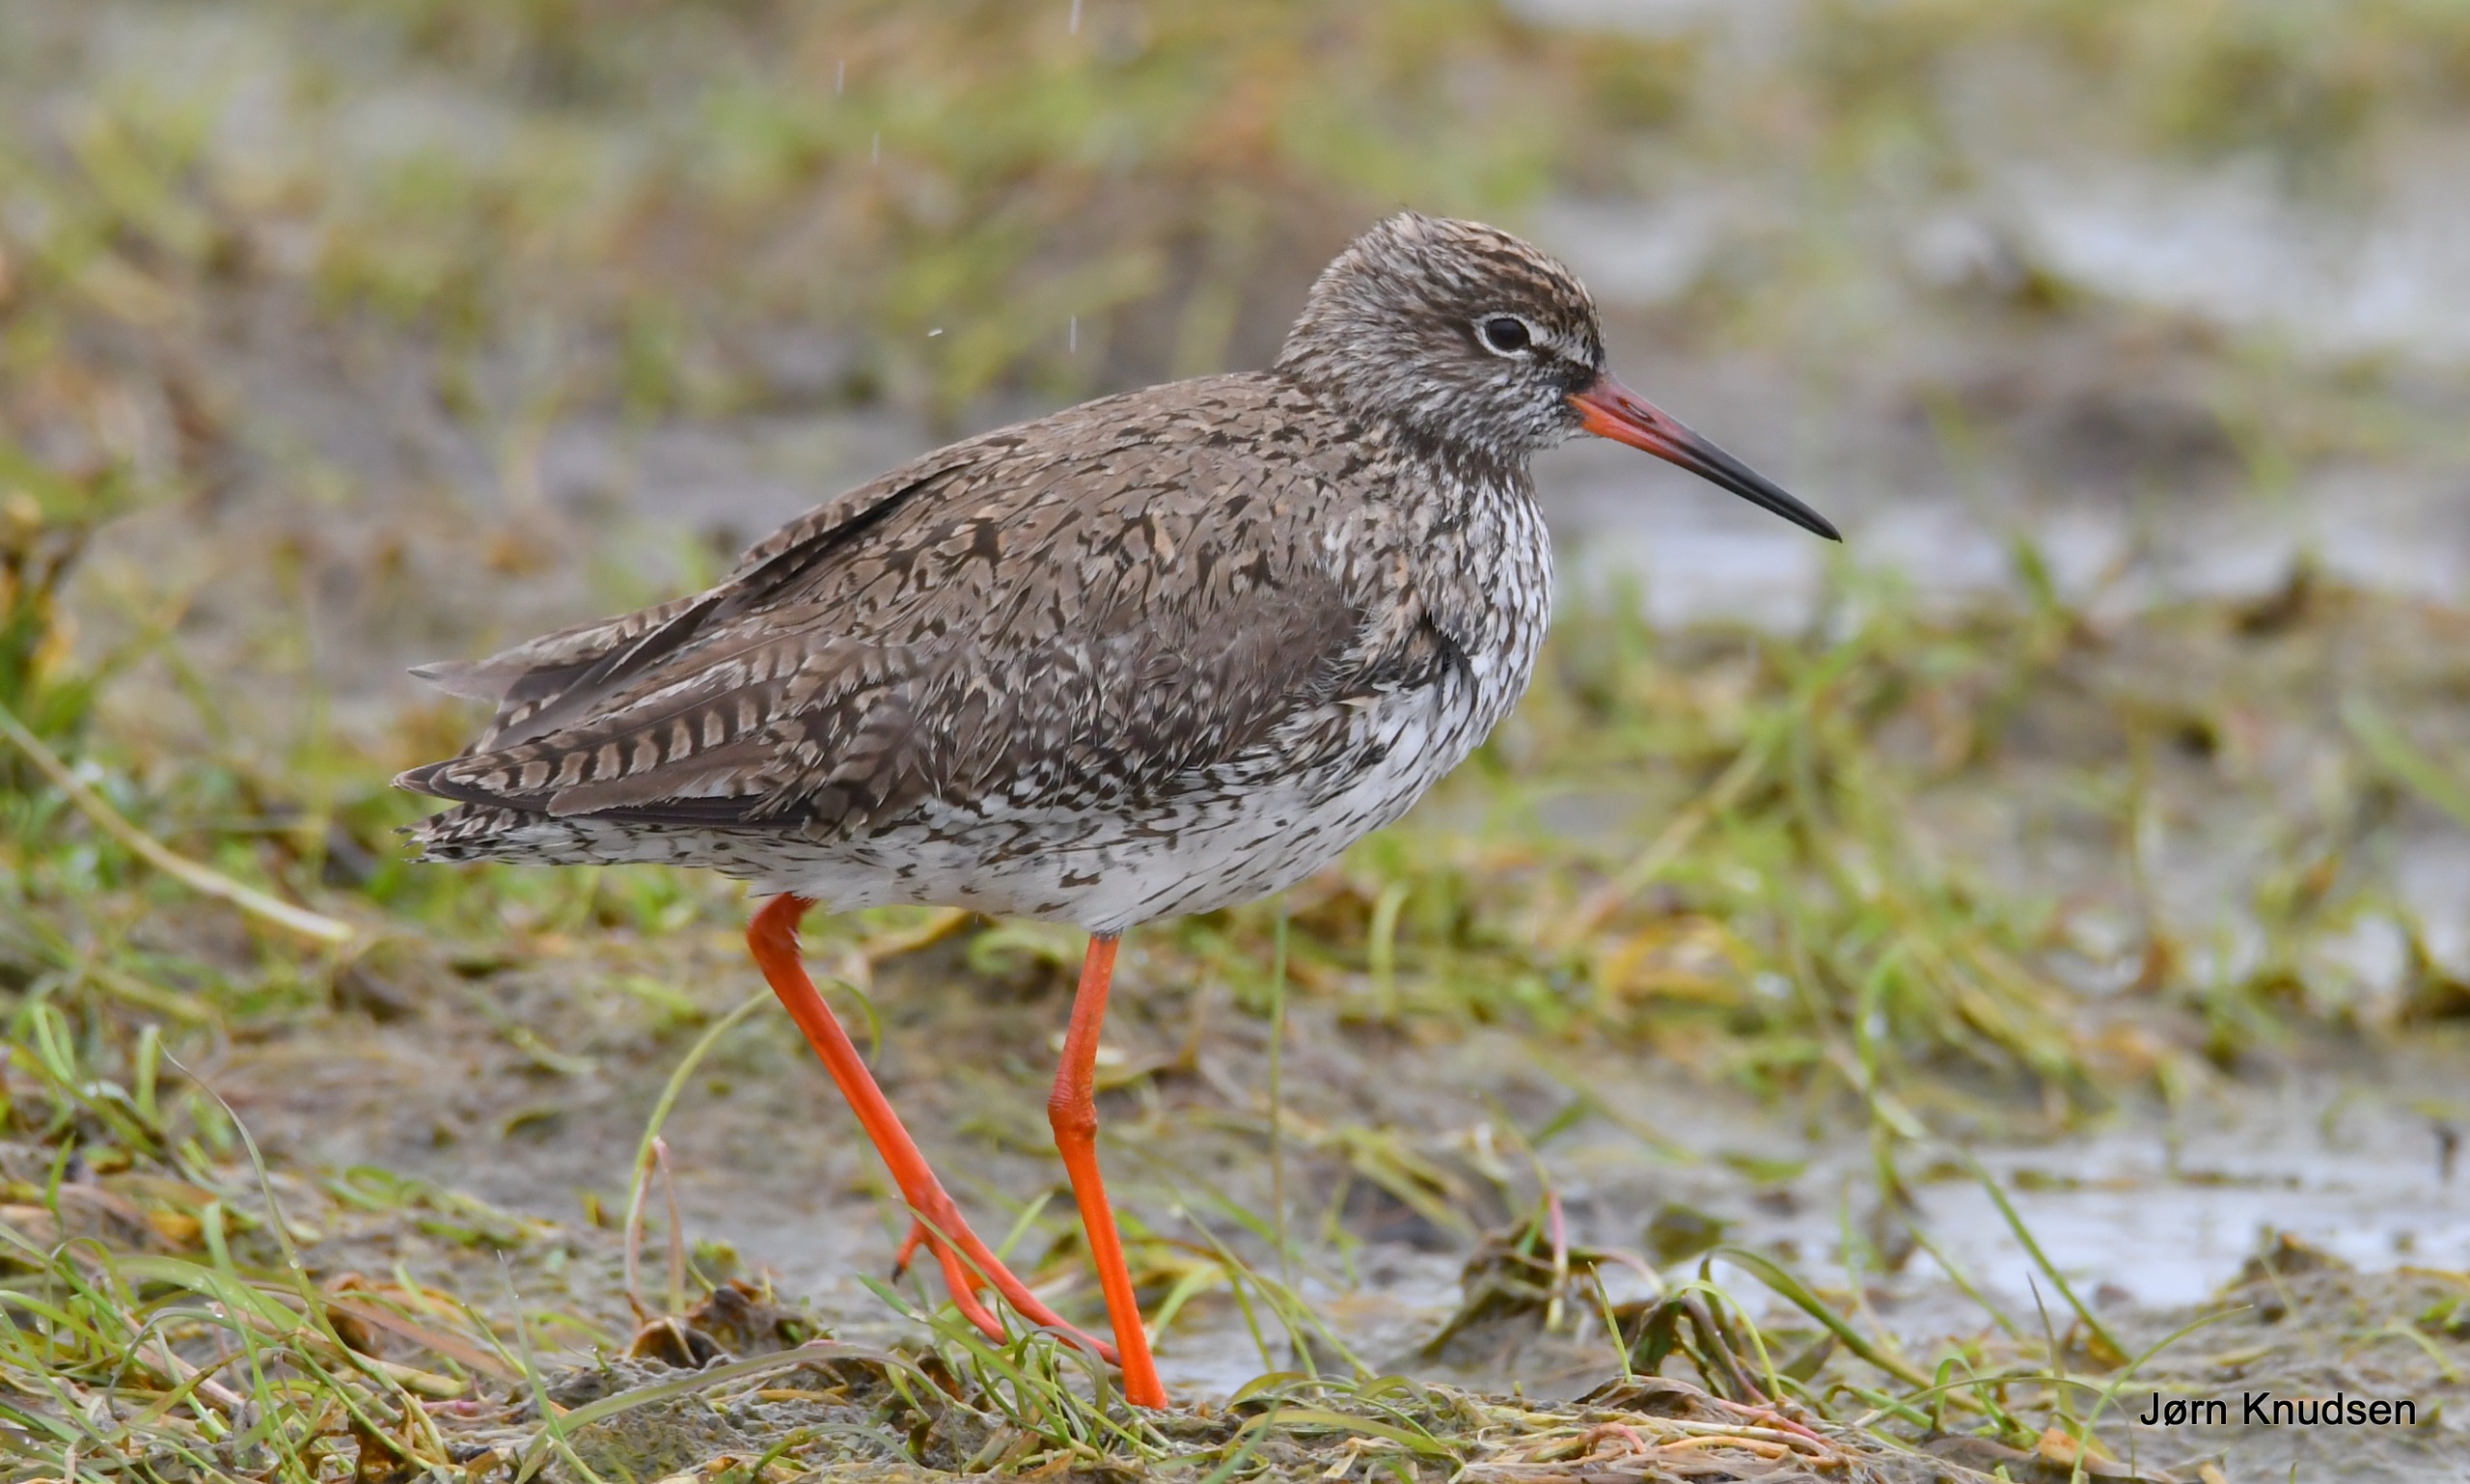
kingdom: Animalia
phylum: Chordata
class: Aves
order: Charadriiformes
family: Scolopacidae
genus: Tringa
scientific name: Tringa totanus
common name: Rødben
